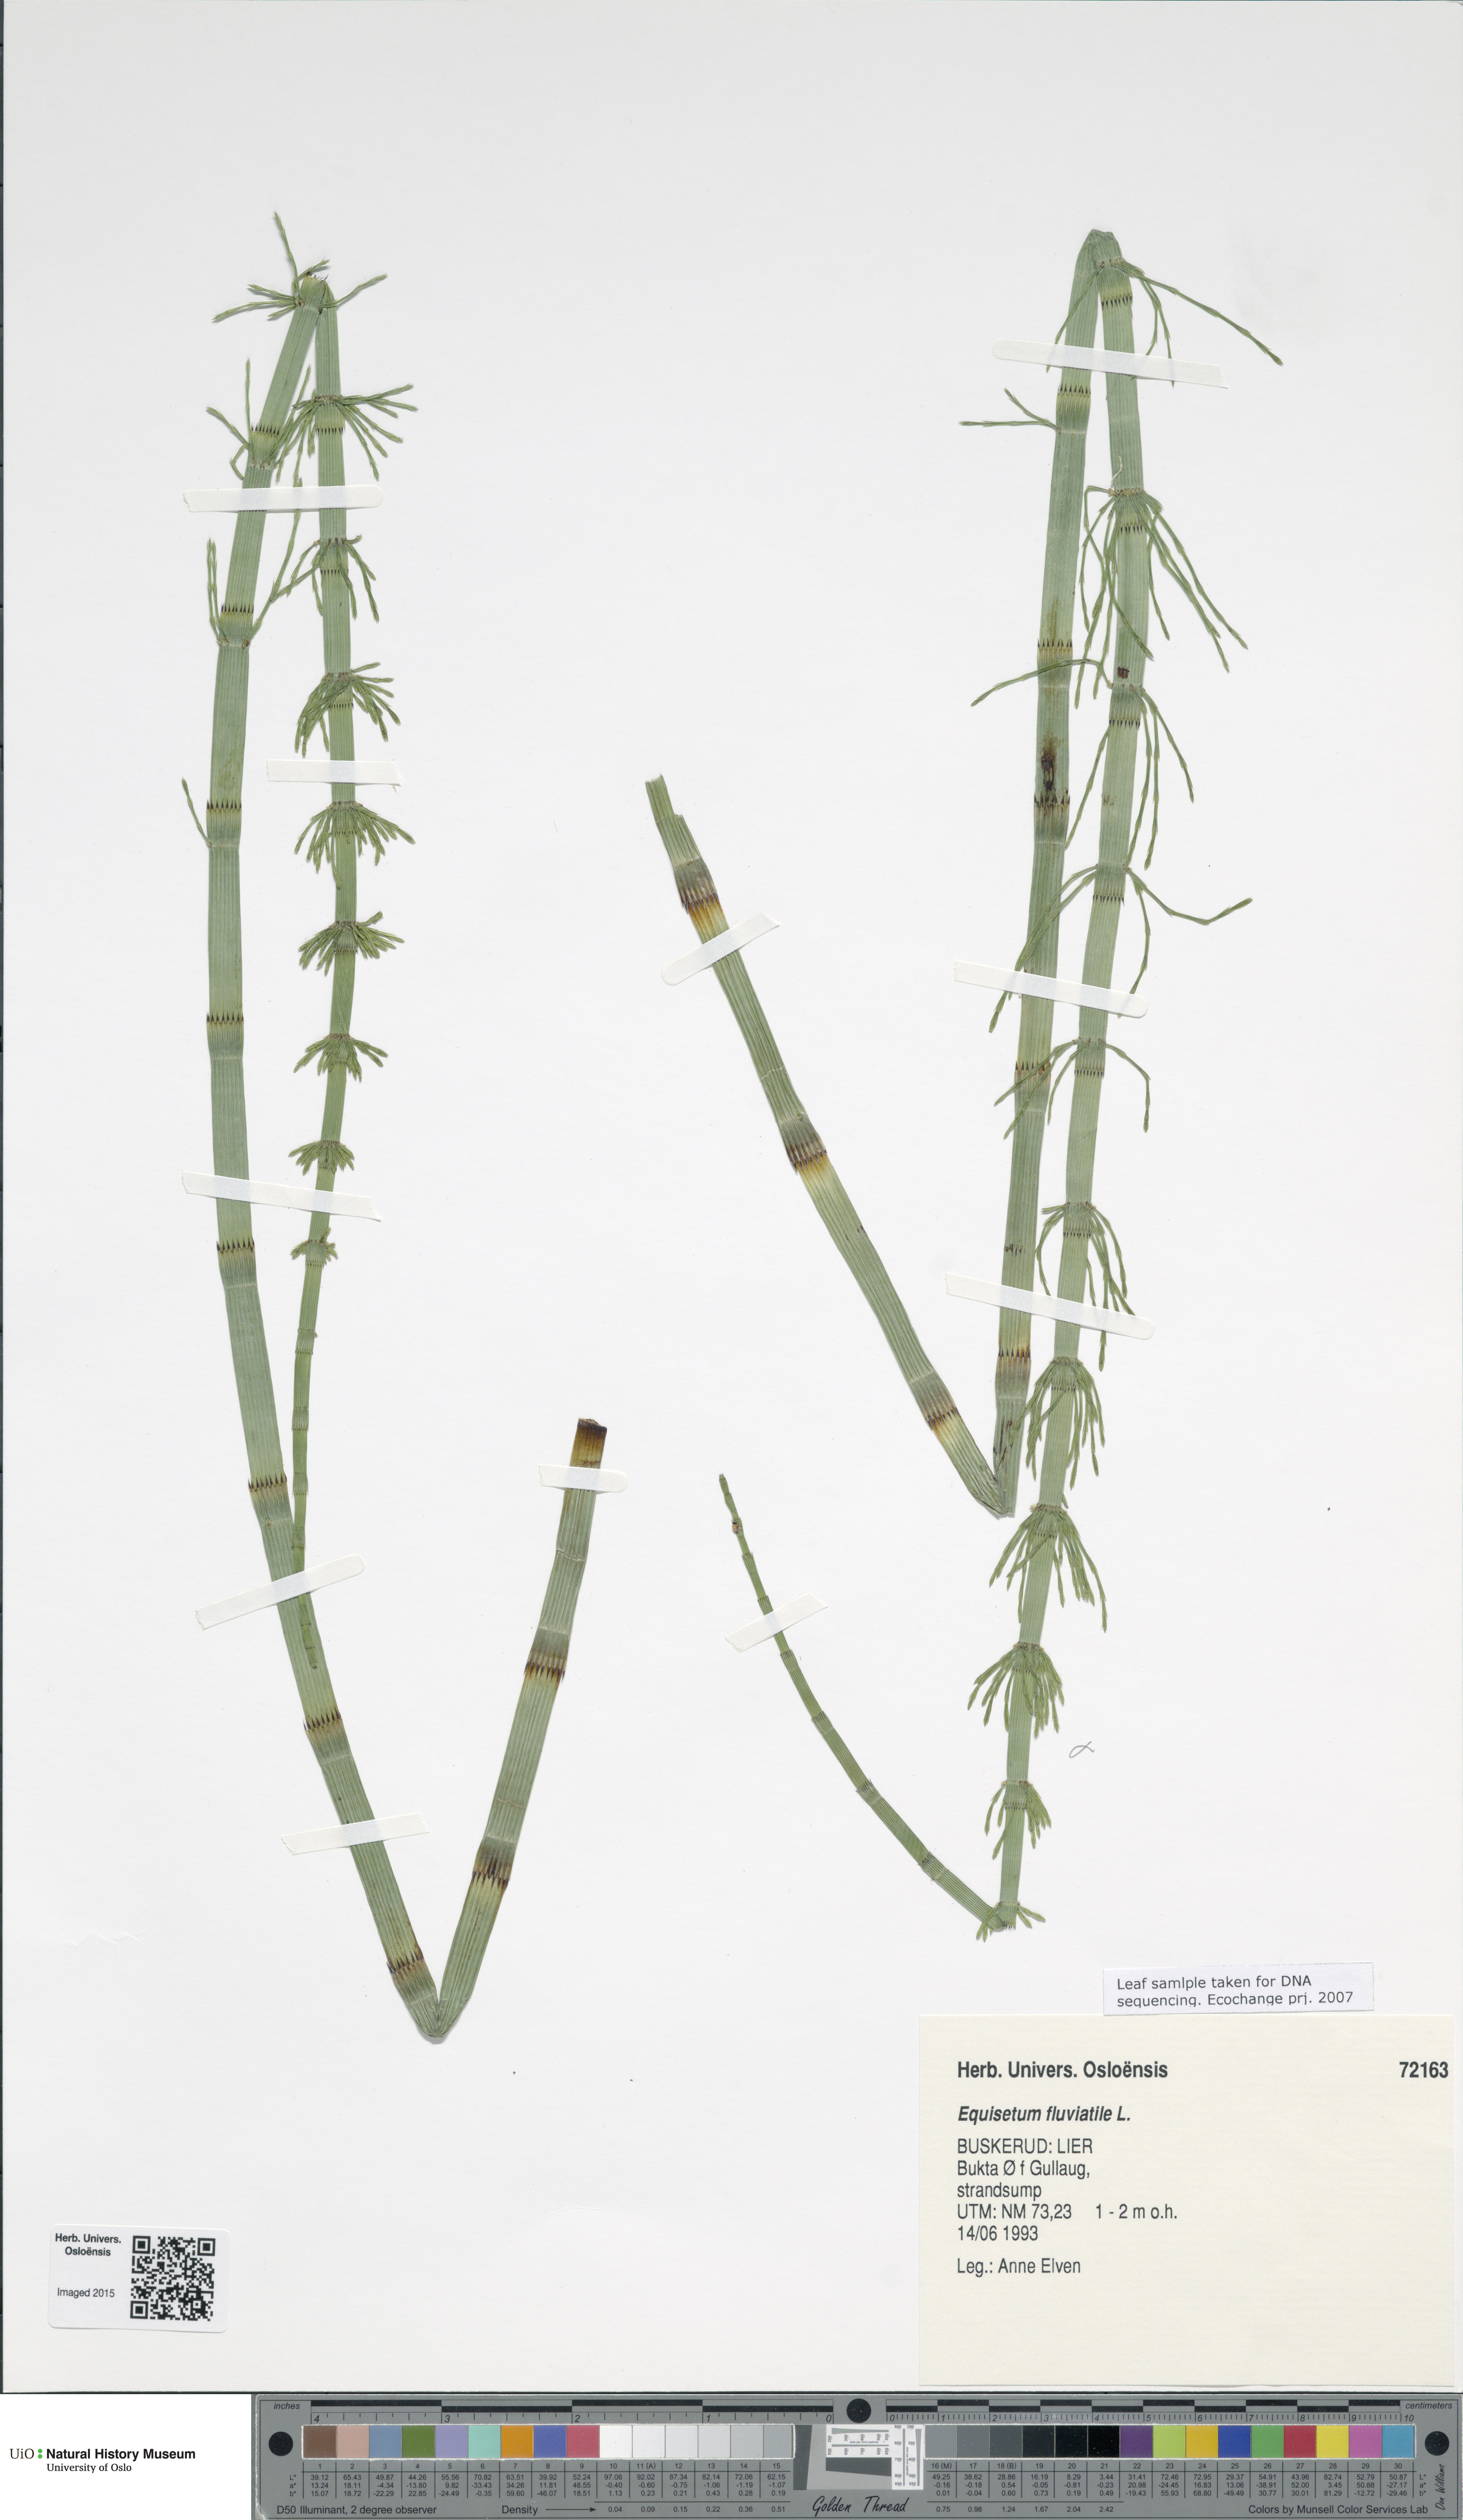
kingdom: Plantae
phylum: Tracheophyta
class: Polypodiopsida
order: Equisetales
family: Equisetaceae
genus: Equisetum
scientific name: Equisetum fluviatile
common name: Water horsetail
